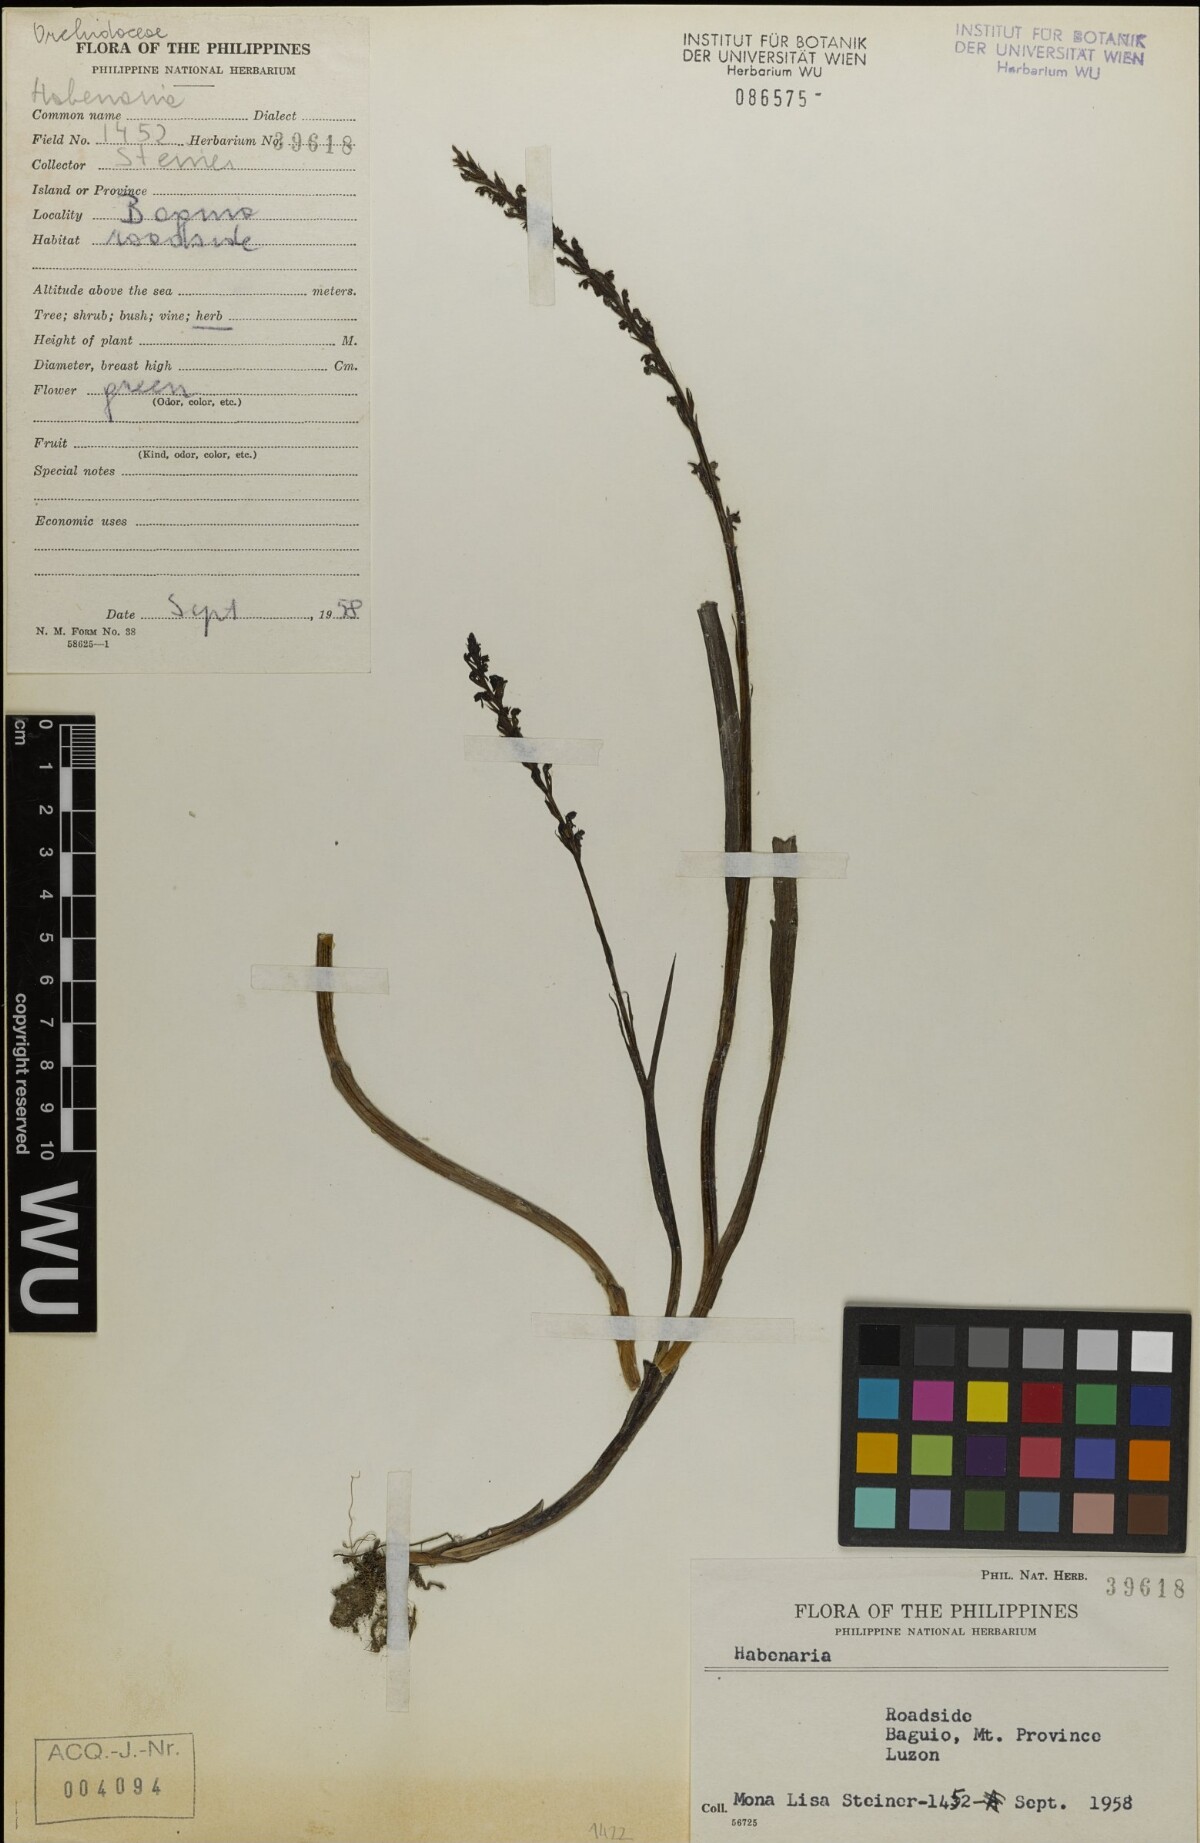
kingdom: Plantae
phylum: Tracheophyta
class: Liliopsida
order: Asparagales
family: Orchidaceae
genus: Habenaria
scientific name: Habenaria
